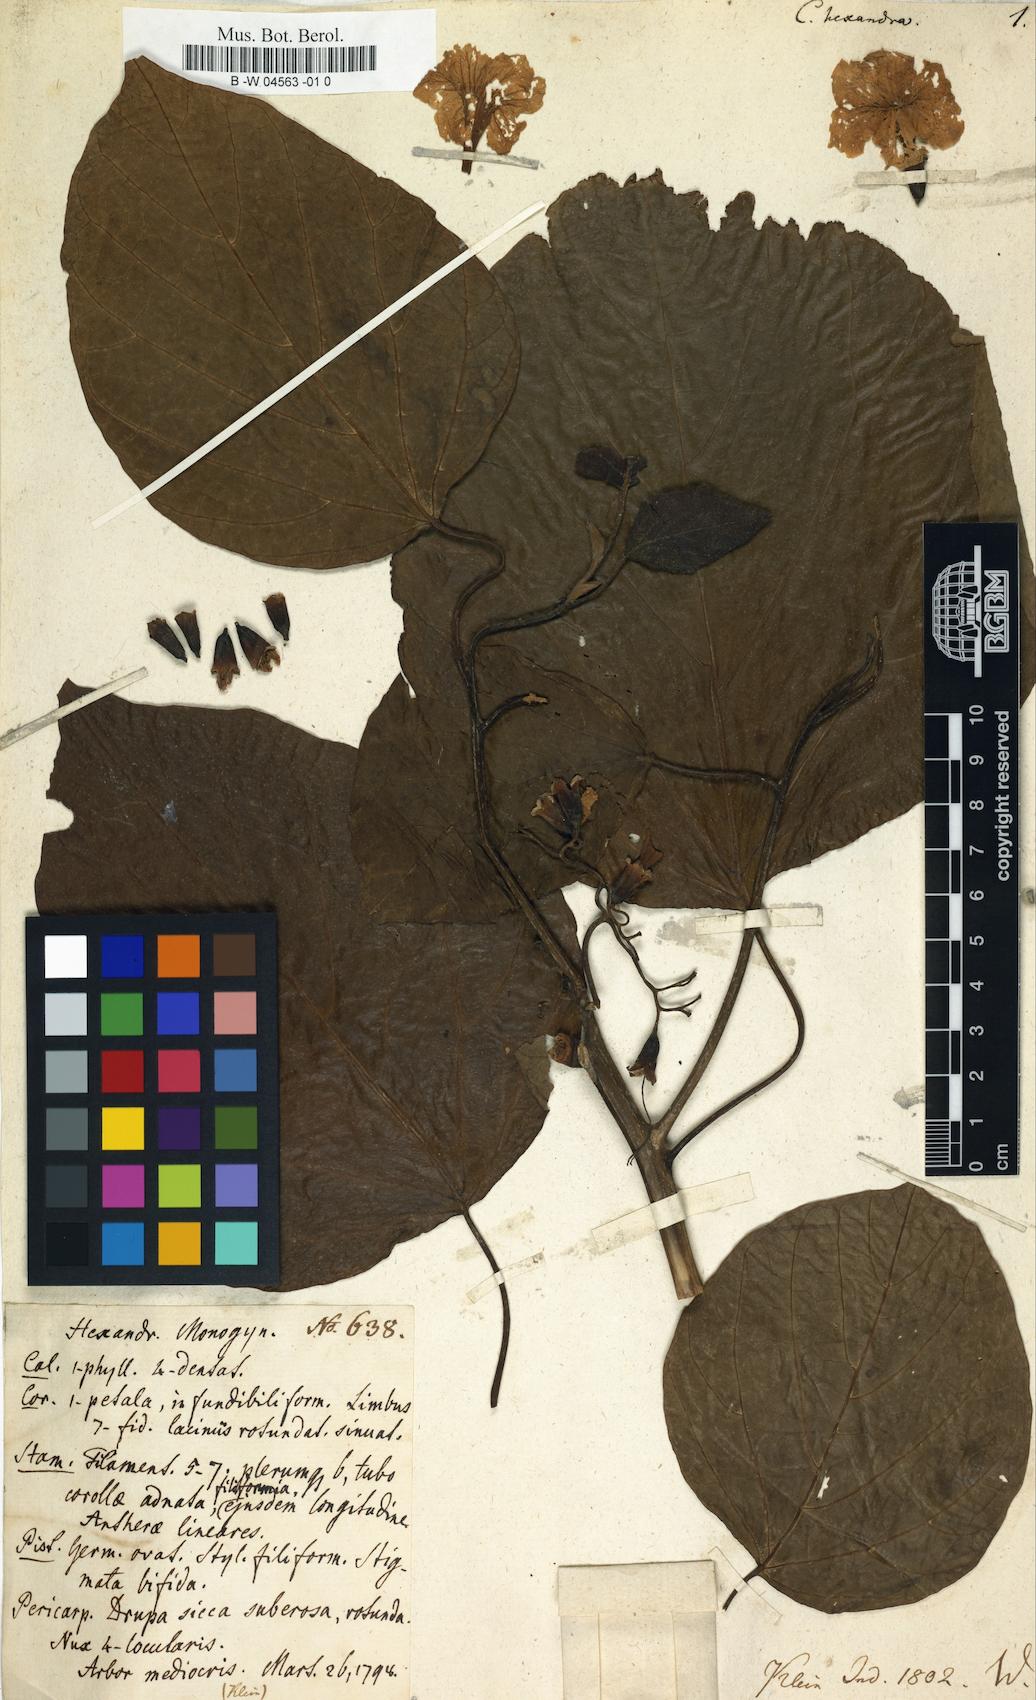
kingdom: Plantae
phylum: Tracheophyta
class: Magnoliopsida
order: Boraginales
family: Cordiaceae
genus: Cordia
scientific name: Cordia subcordata
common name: Mareer
